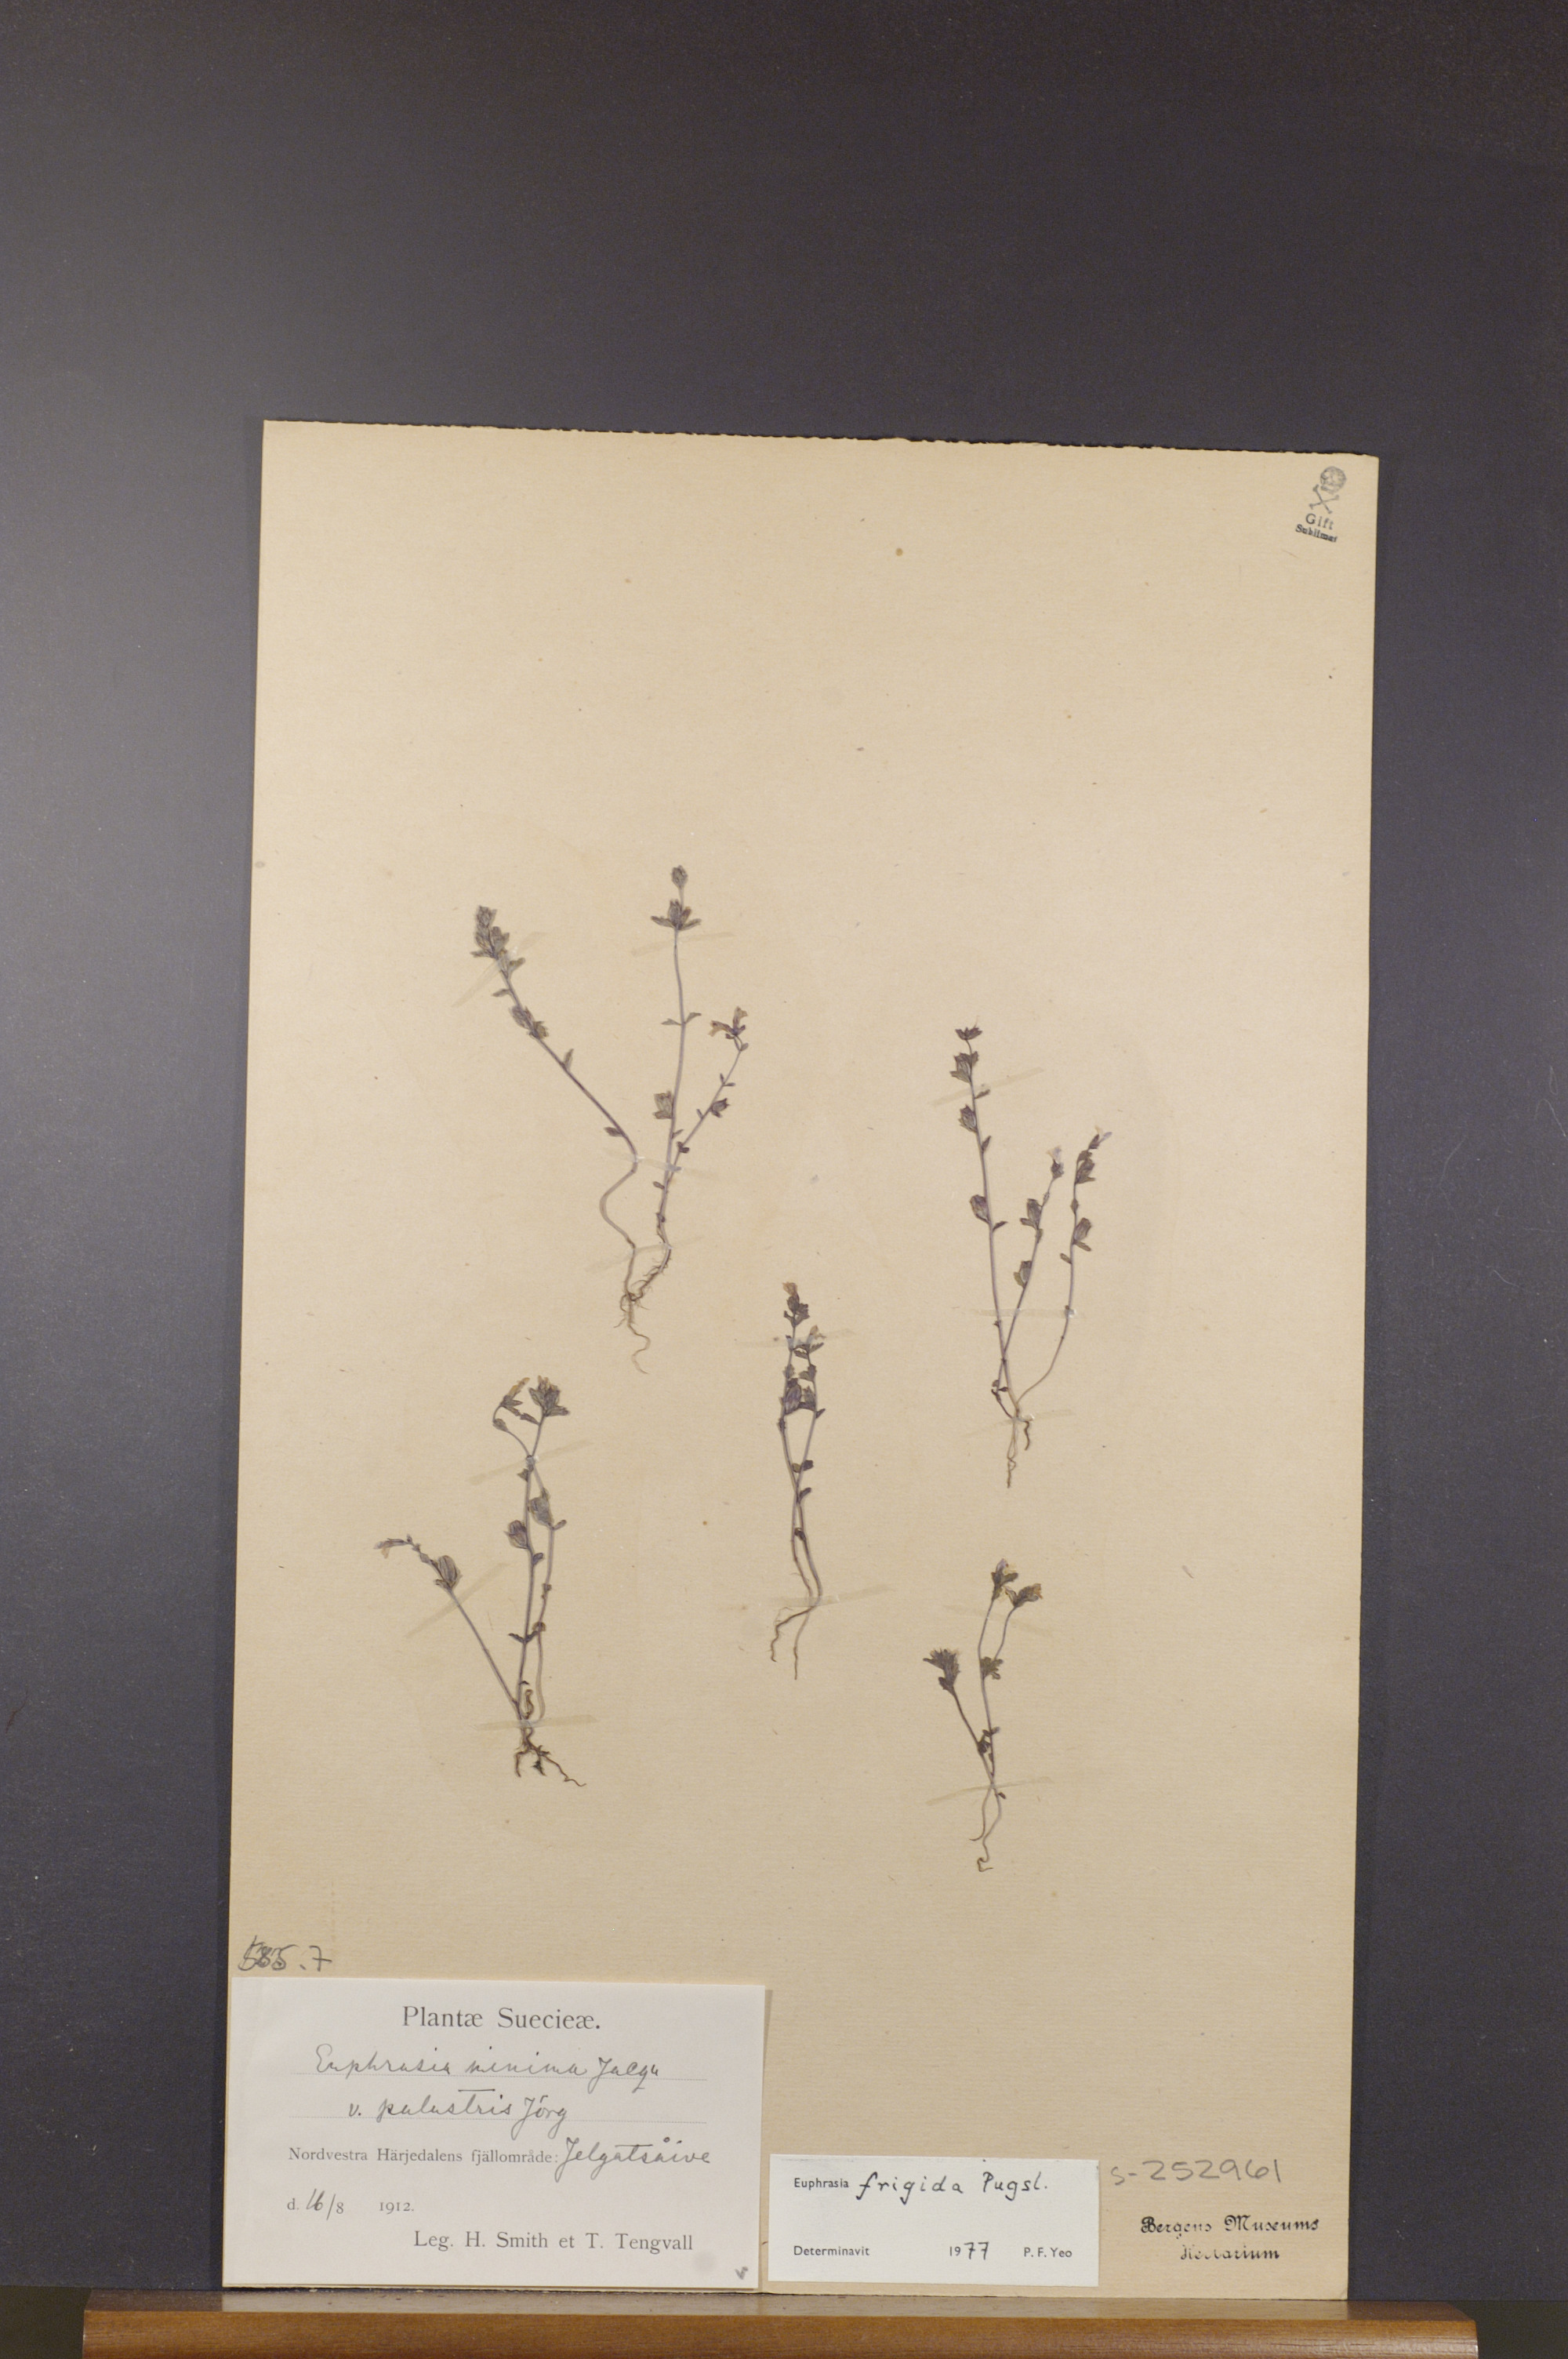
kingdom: Plantae
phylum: Tracheophyta
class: Magnoliopsida
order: Lamiales
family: Orobanchaceae
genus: Euphrasia
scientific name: Euphrasia frigida
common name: An eyebright
